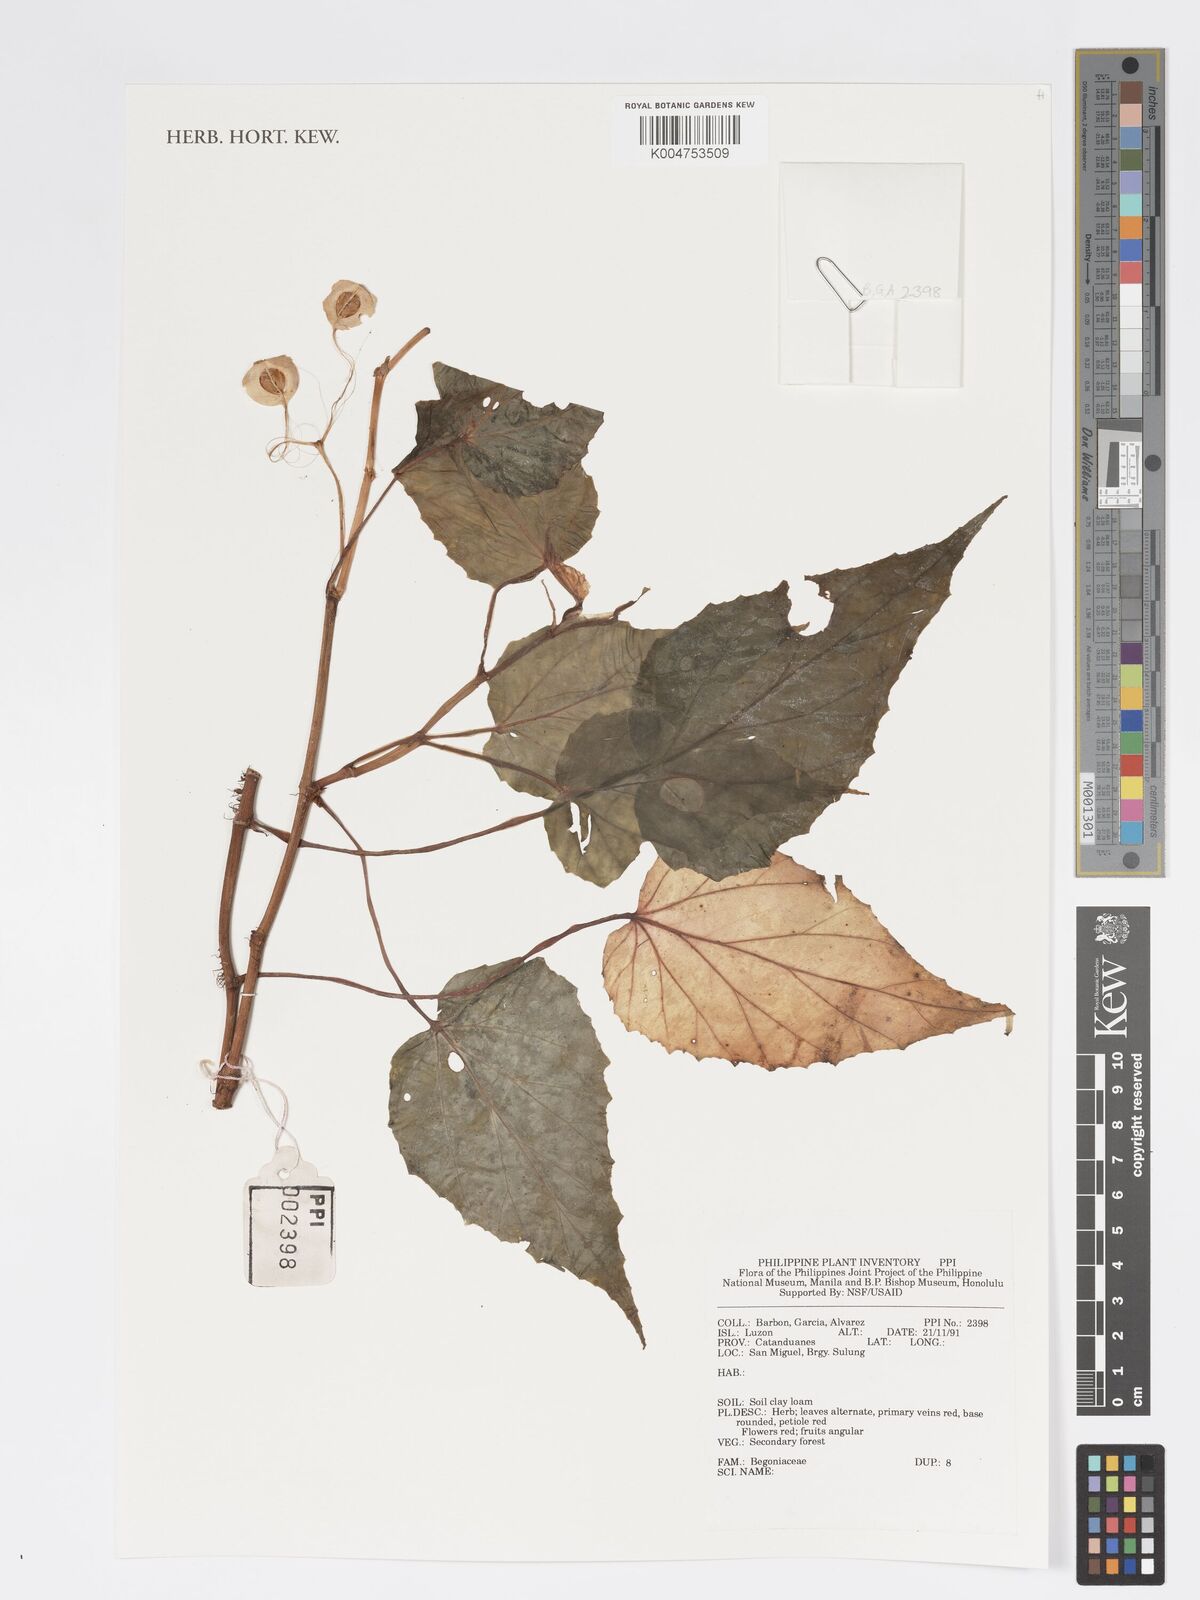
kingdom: Plantae
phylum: Tracheophyta
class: Magnoliopsida
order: Cucurbitales
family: Begoniaceae
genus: Begonia
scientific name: Begonia
